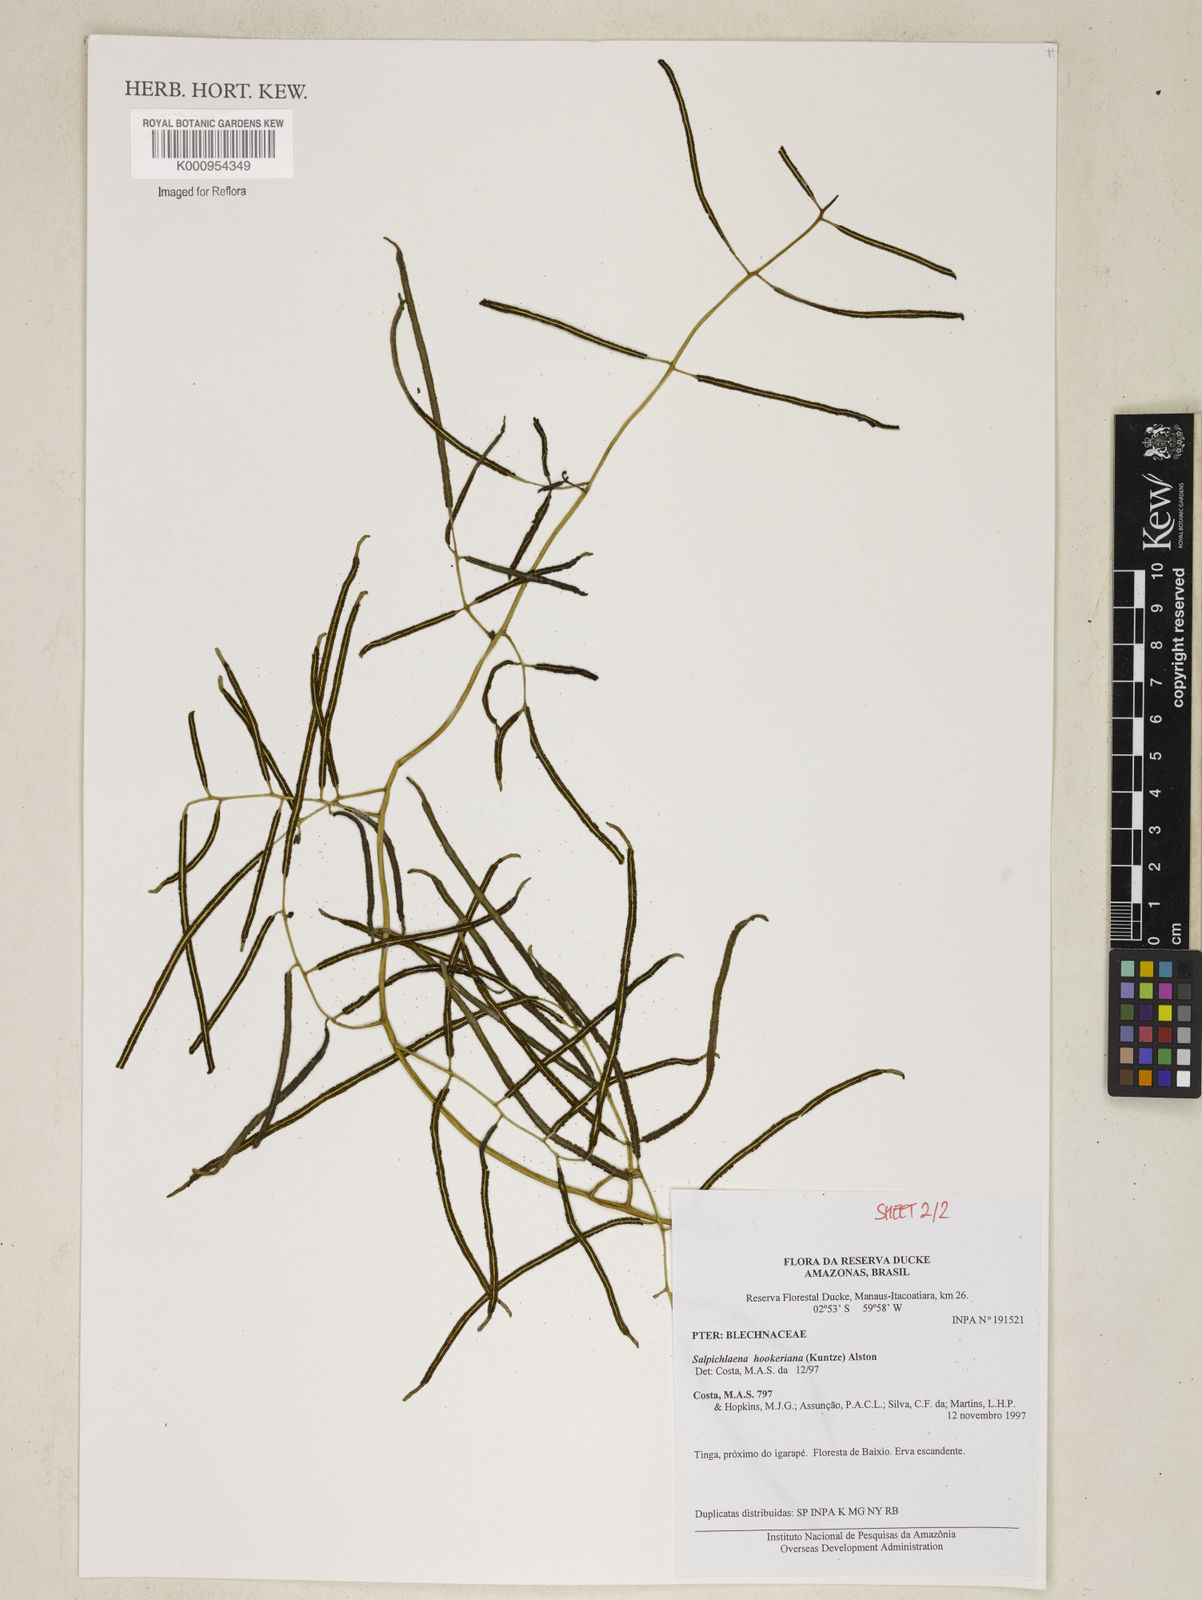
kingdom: Plantae
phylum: Tracheophyta
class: Polypodiopsida
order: Polypodiales
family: Blechnaceae
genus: Blechnum
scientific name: Blechnum
